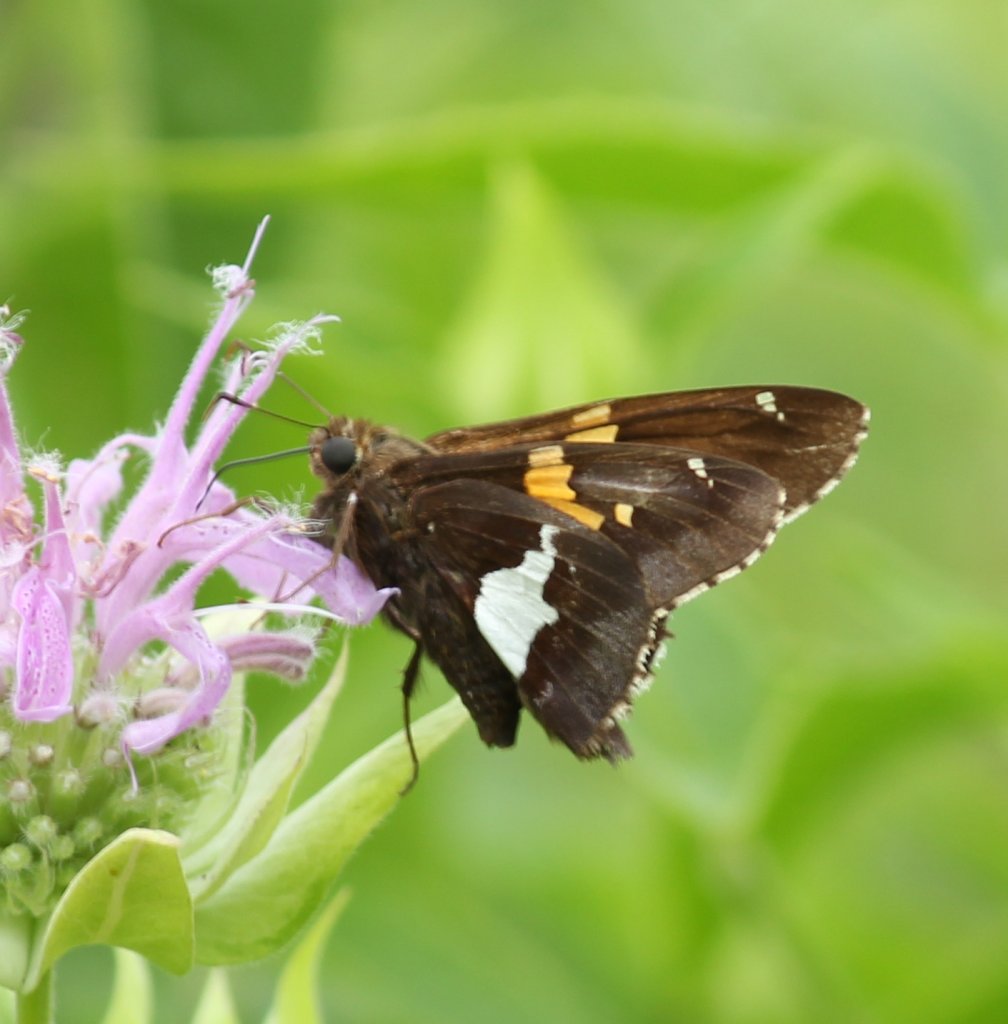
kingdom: Animalia
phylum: Arthropoda
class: Insecta
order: Lepidoptera
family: Hesperiidae
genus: Epargyreus
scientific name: Epargyreus clarus
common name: Silver-spotted Skipper
